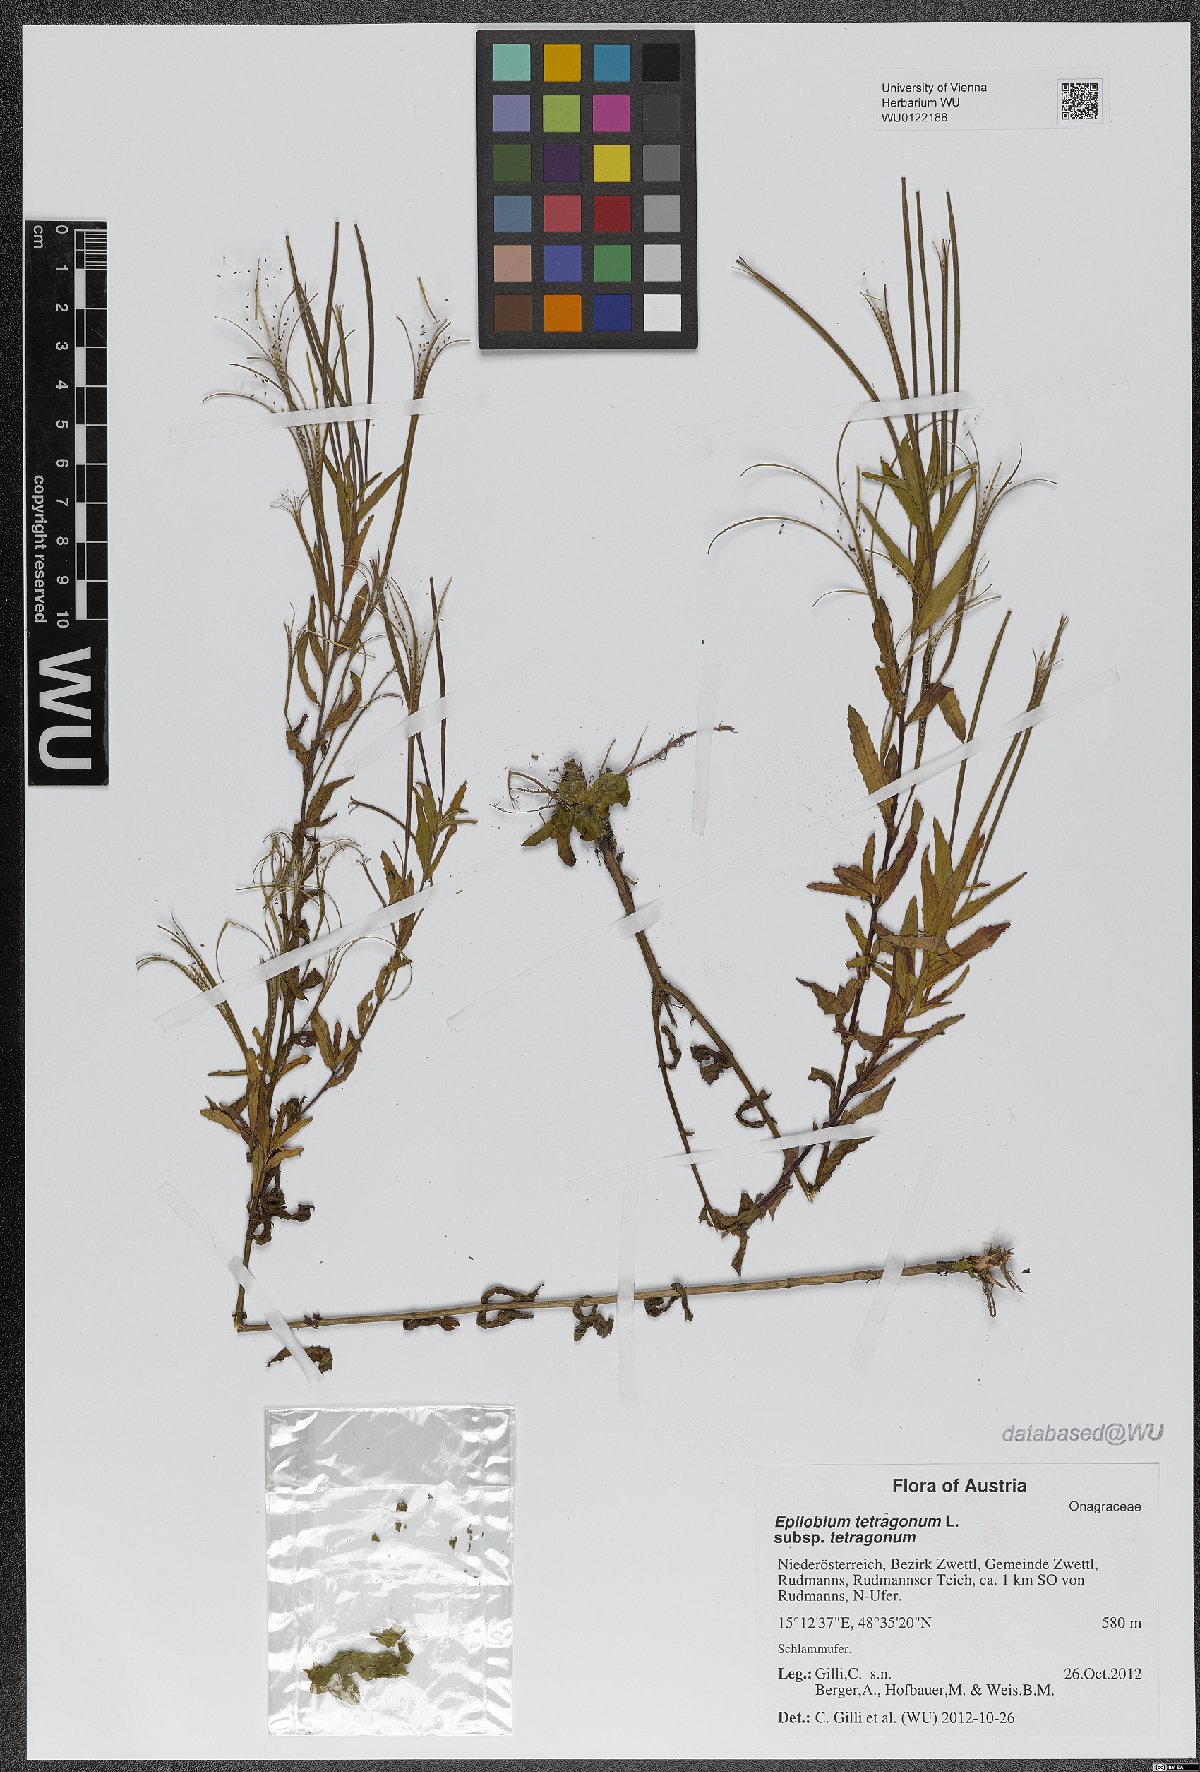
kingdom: Plantae
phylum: Tracheophyta
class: Magnoliopsida
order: Myrtales
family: Onagraceae
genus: Epilobium
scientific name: Epilobium tetragonum
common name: Square-stemmed willowherb
